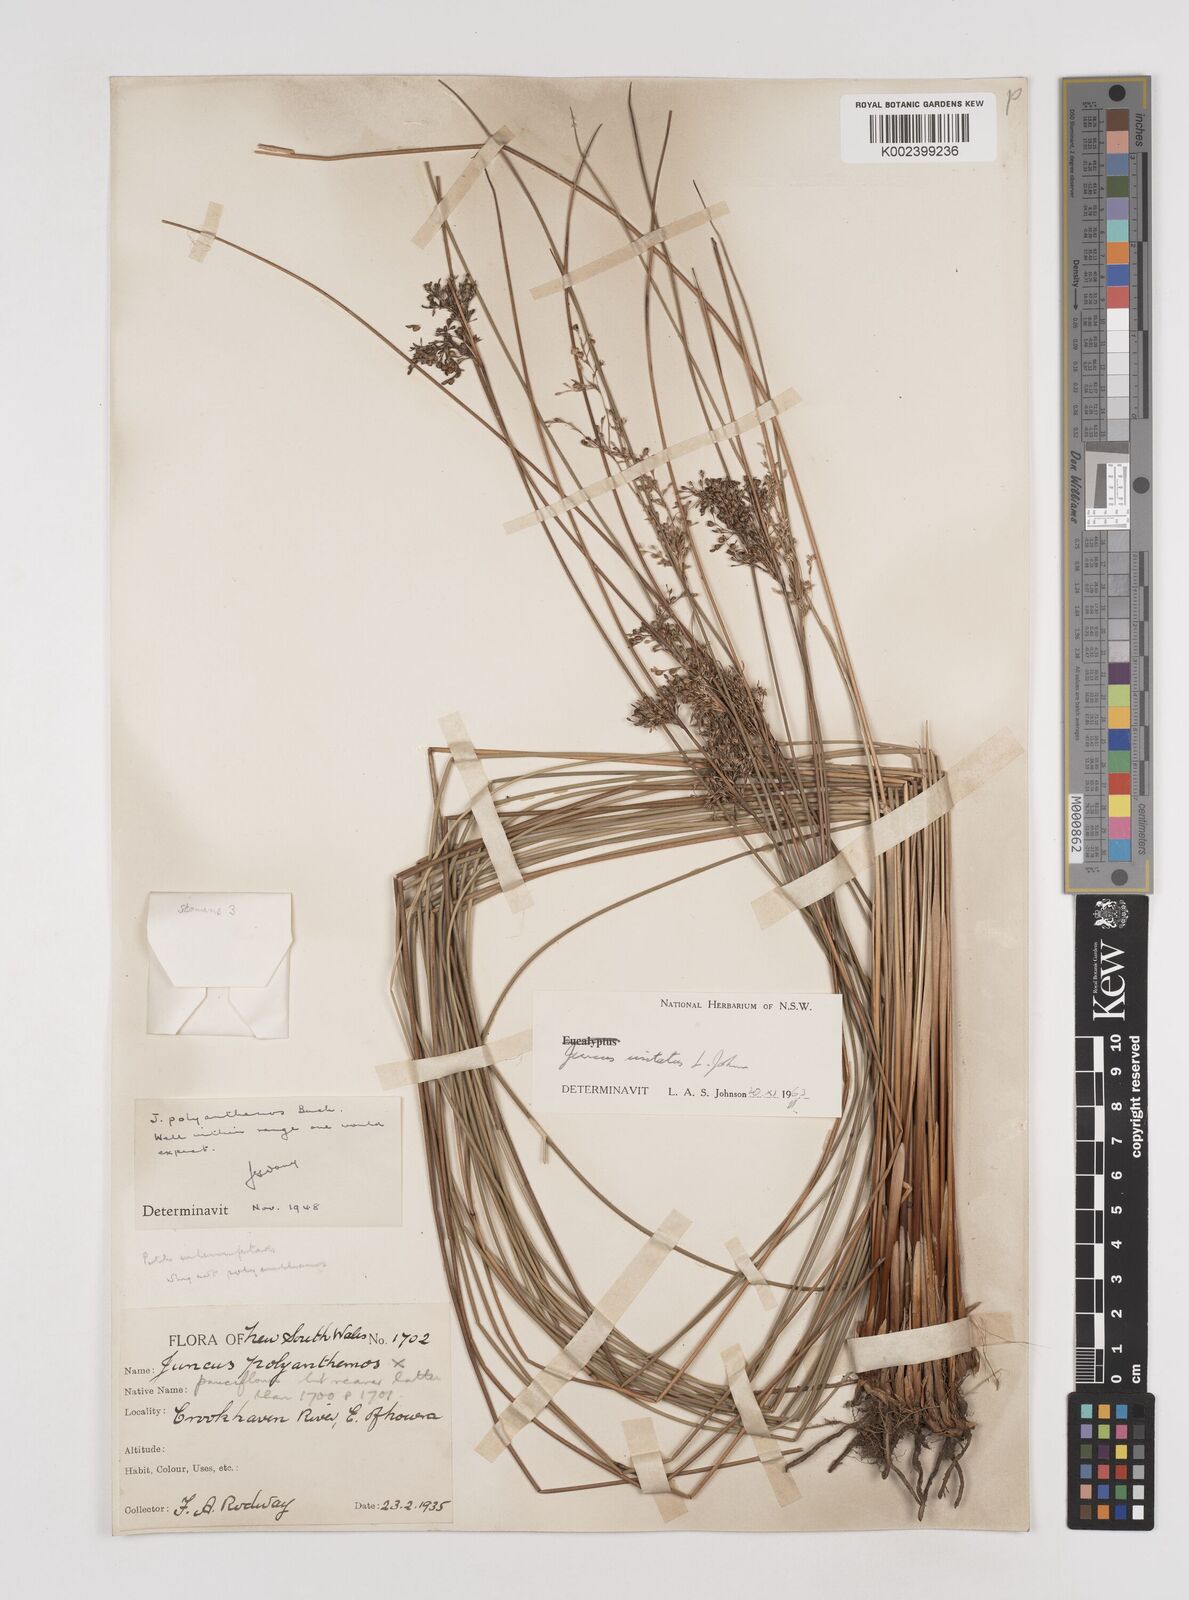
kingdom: Plantae
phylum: Tracheophyta
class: Liliopsida
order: Poales
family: Juncaceae
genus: Juncus
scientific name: Juncus usitatus
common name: Rush
